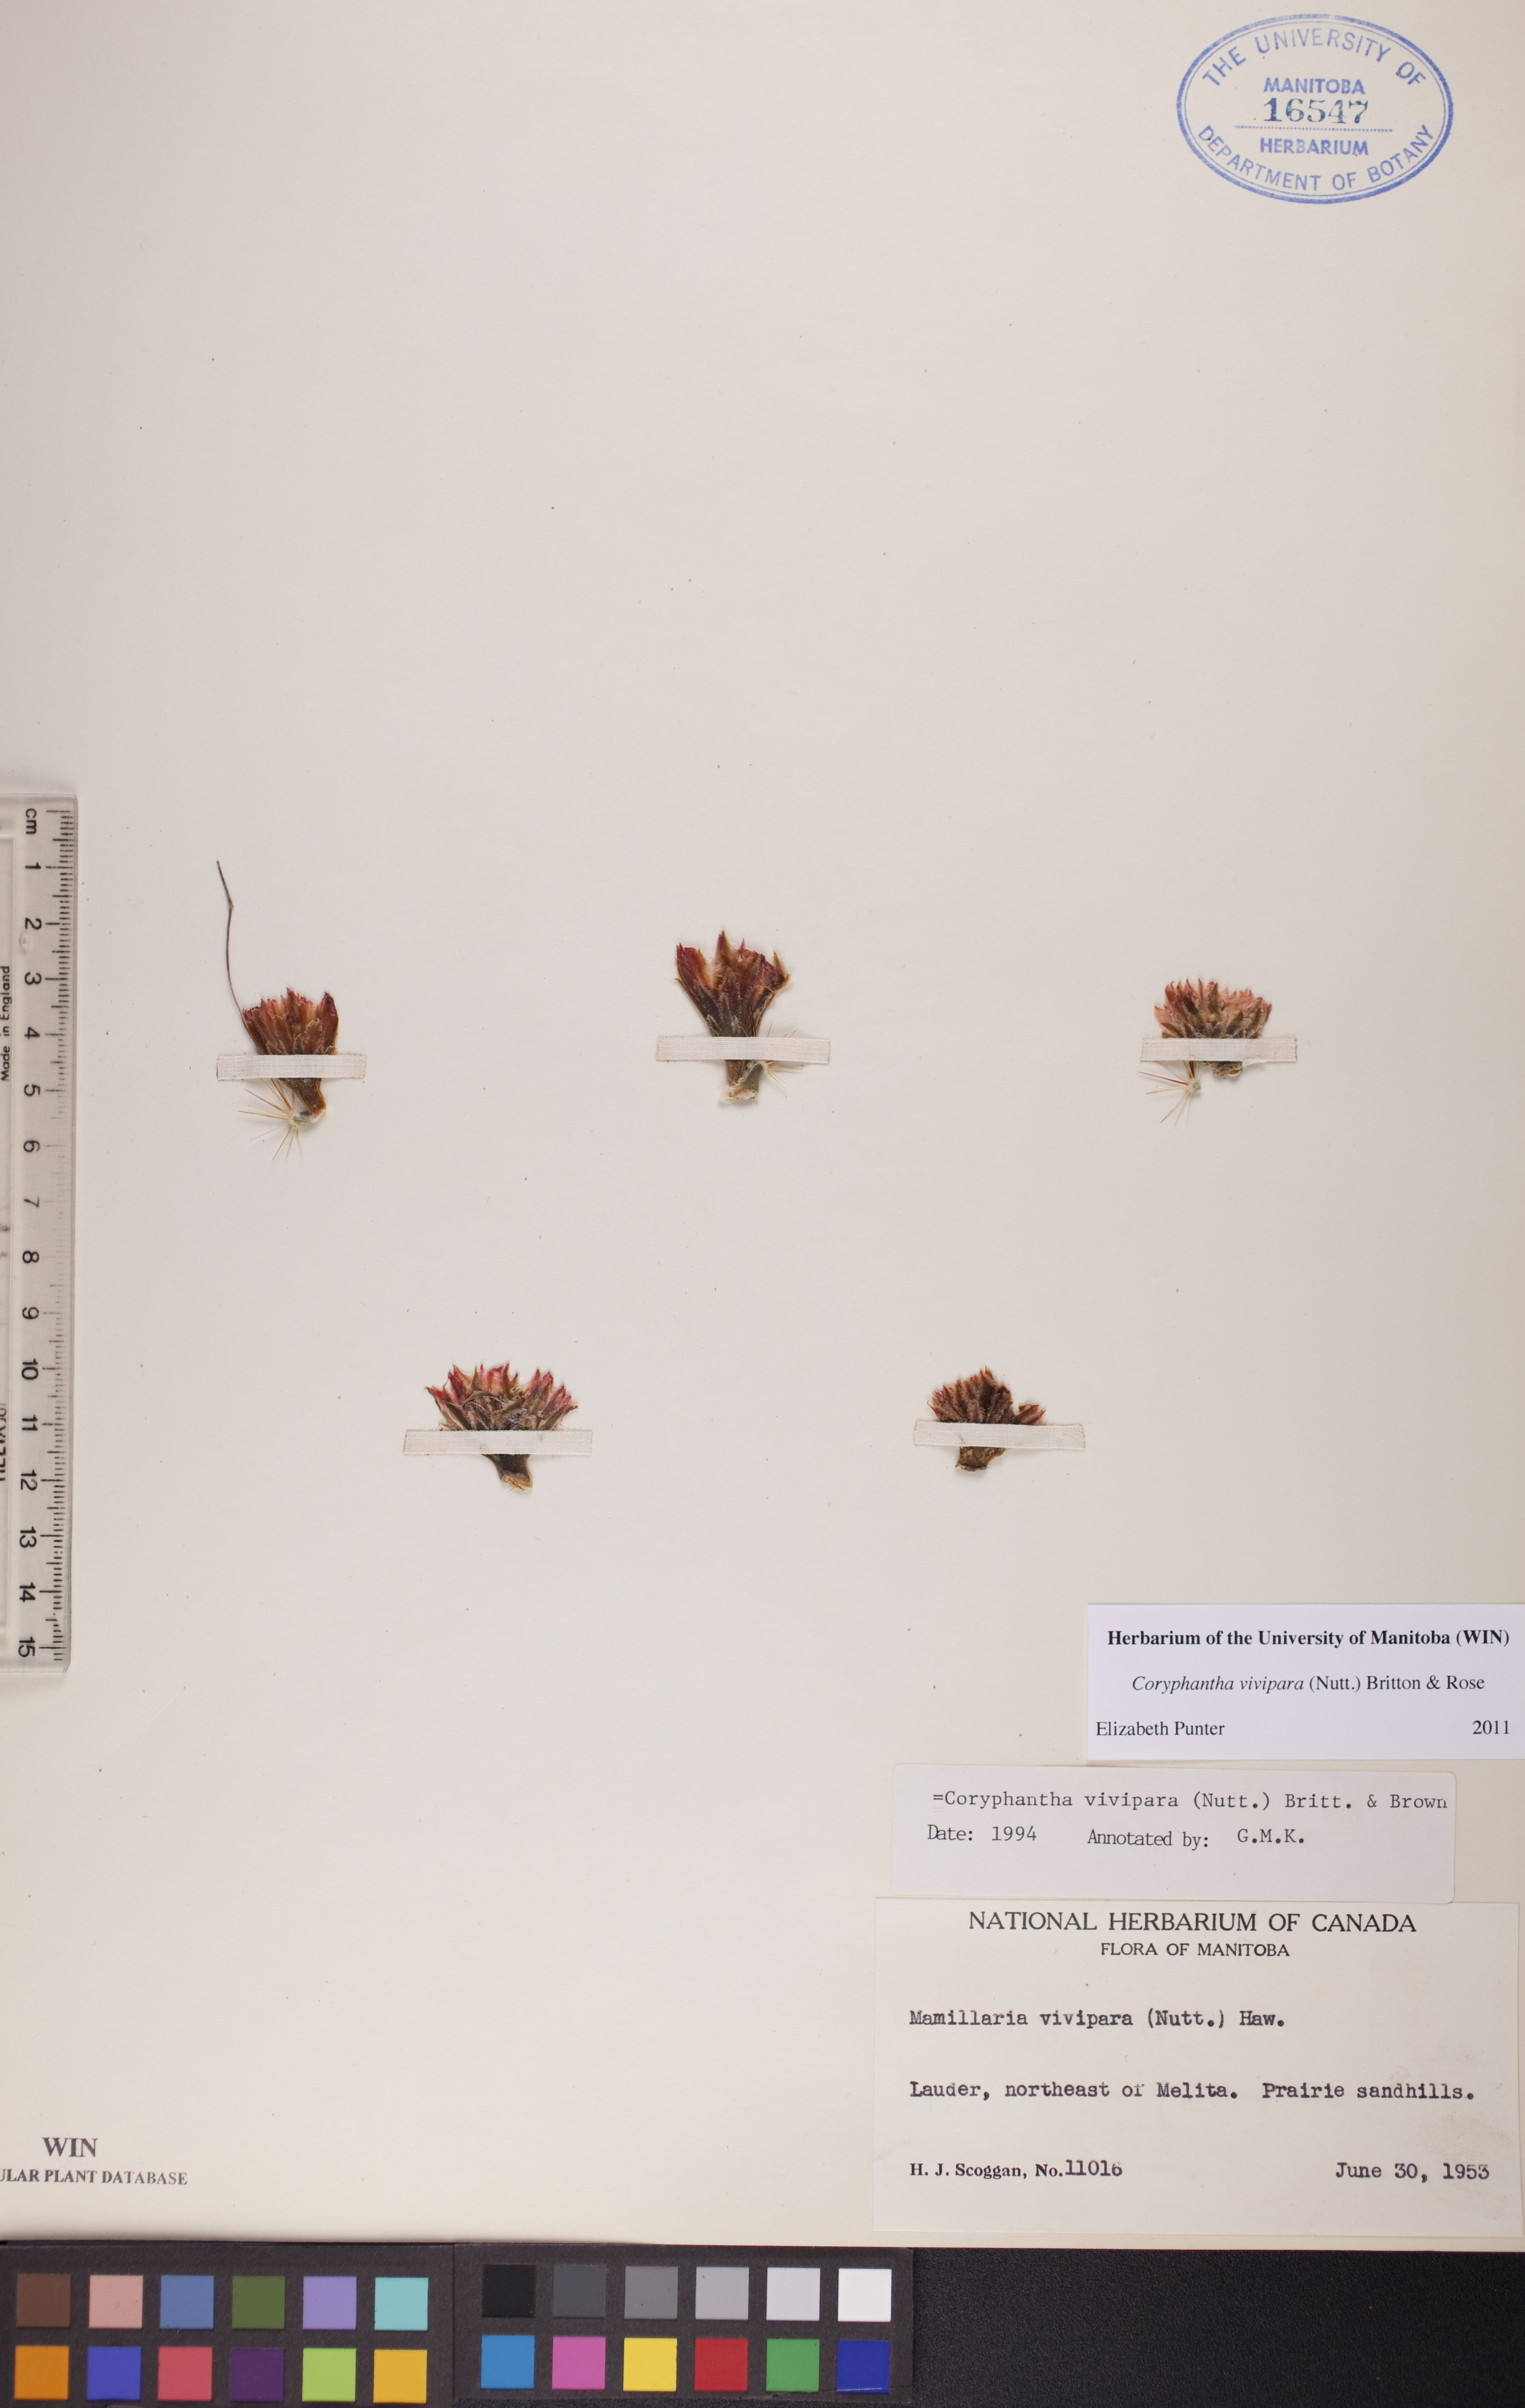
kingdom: Plantae
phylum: Tracheophyta
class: Magnoliopsida
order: Caryophyllales
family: Cactaceae
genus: Pelecyphora
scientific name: Pelecyphora vivipara
